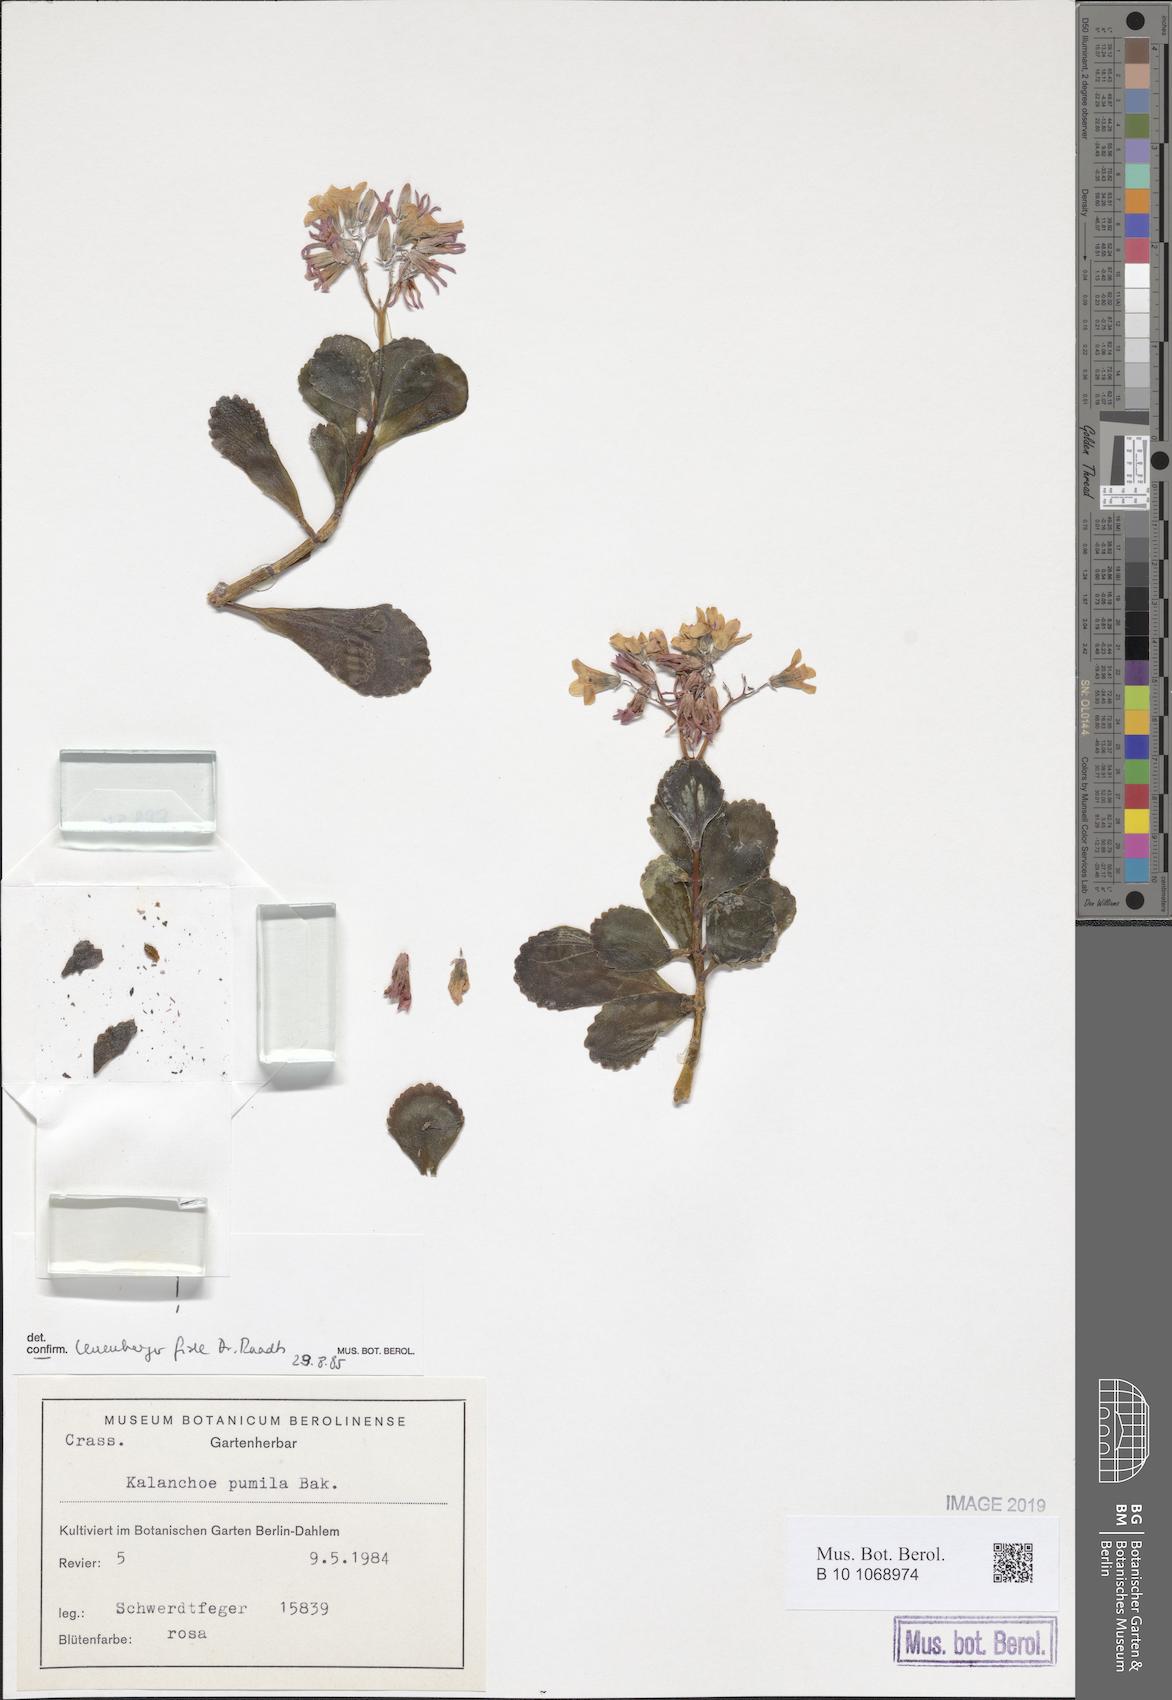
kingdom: Plantae
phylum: Tracheophyta
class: Magnoliopsida
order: Saxifragales
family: Crassulaceae
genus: Kalanchoe
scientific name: Kalanchoe pumila
